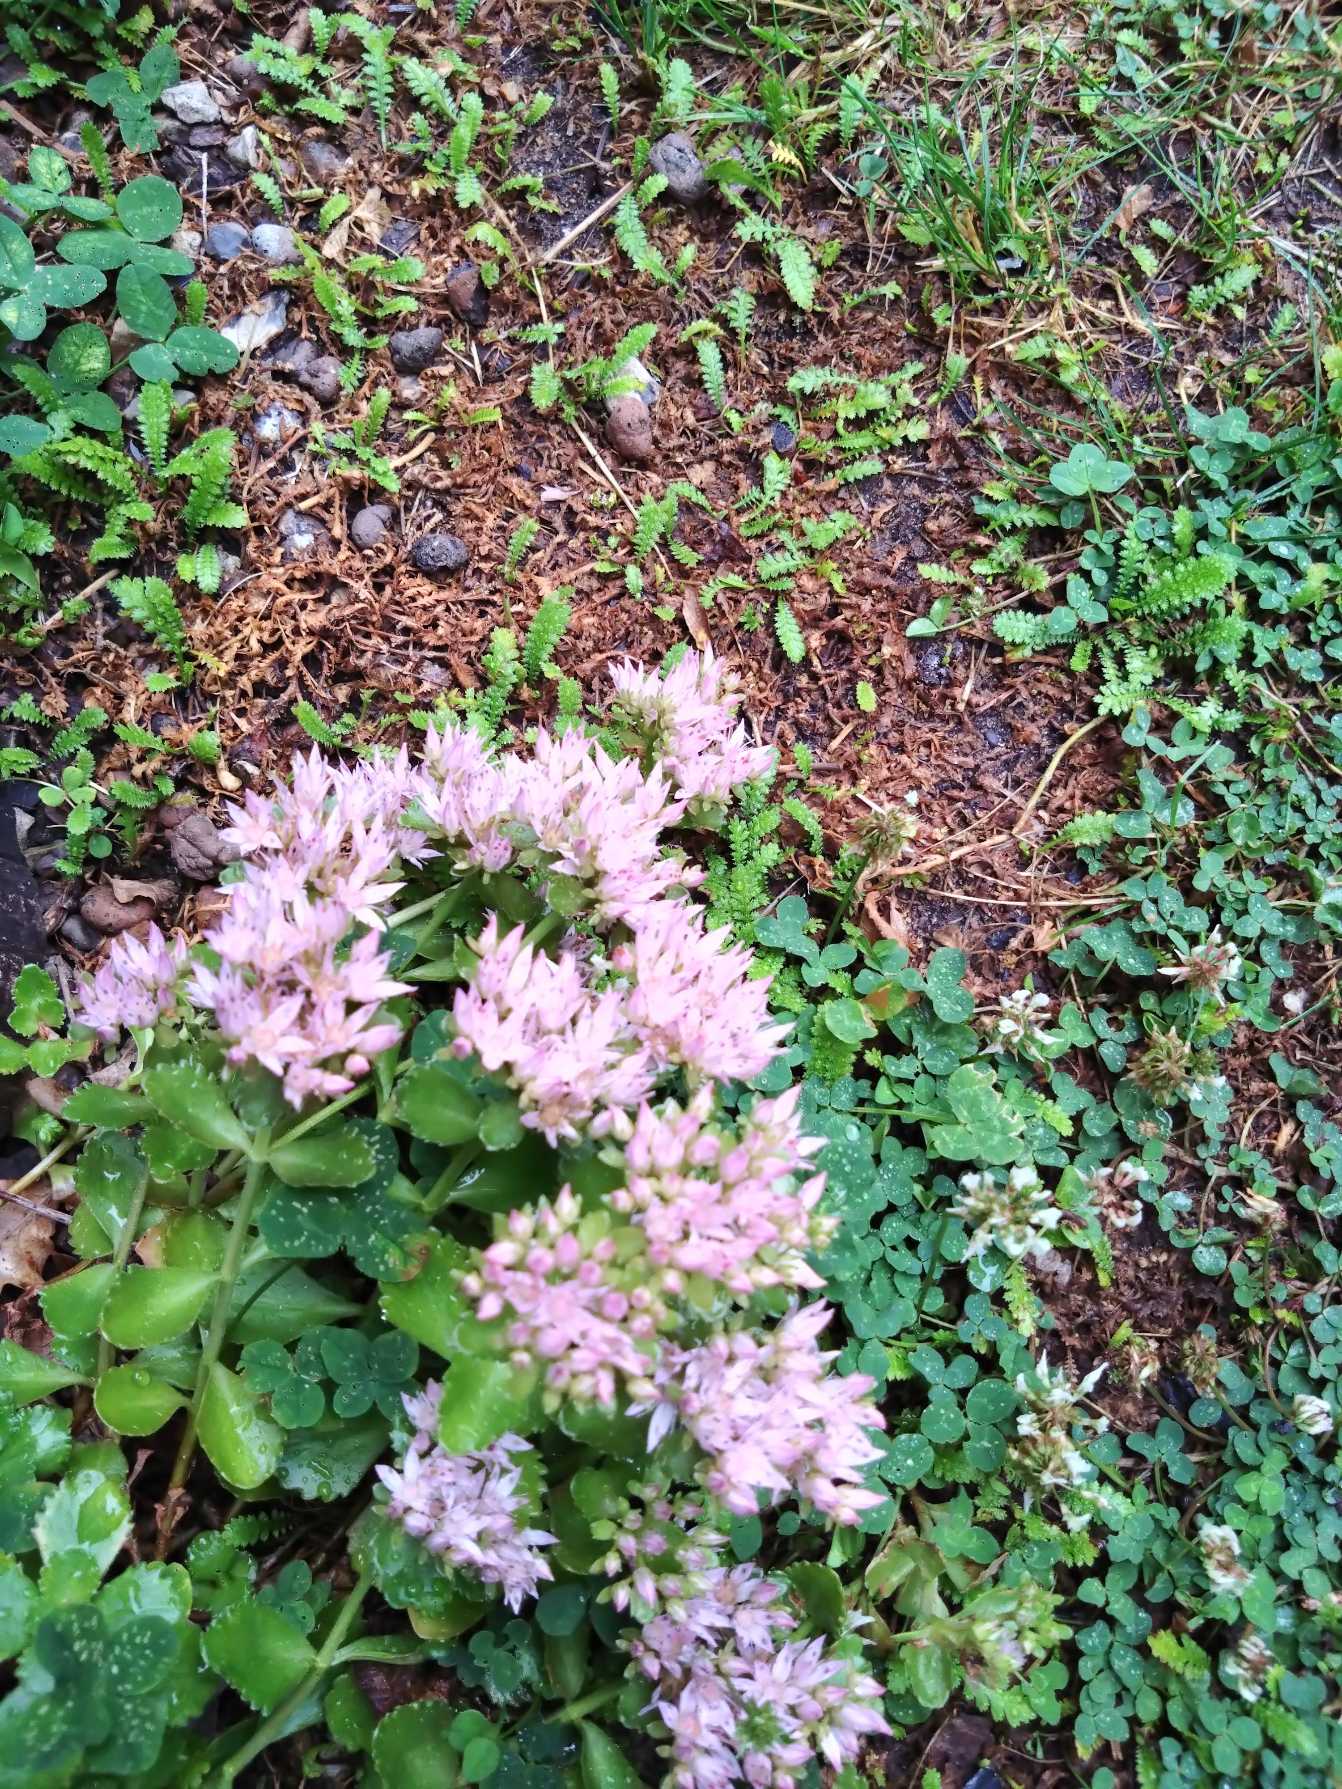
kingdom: Plantae
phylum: Tracheophyta
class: Magnoliopsida
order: Saxifragales
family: Crassulaceae
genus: Hylotelephium
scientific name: Hylotelephium telephium
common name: Rød sankthansurt
